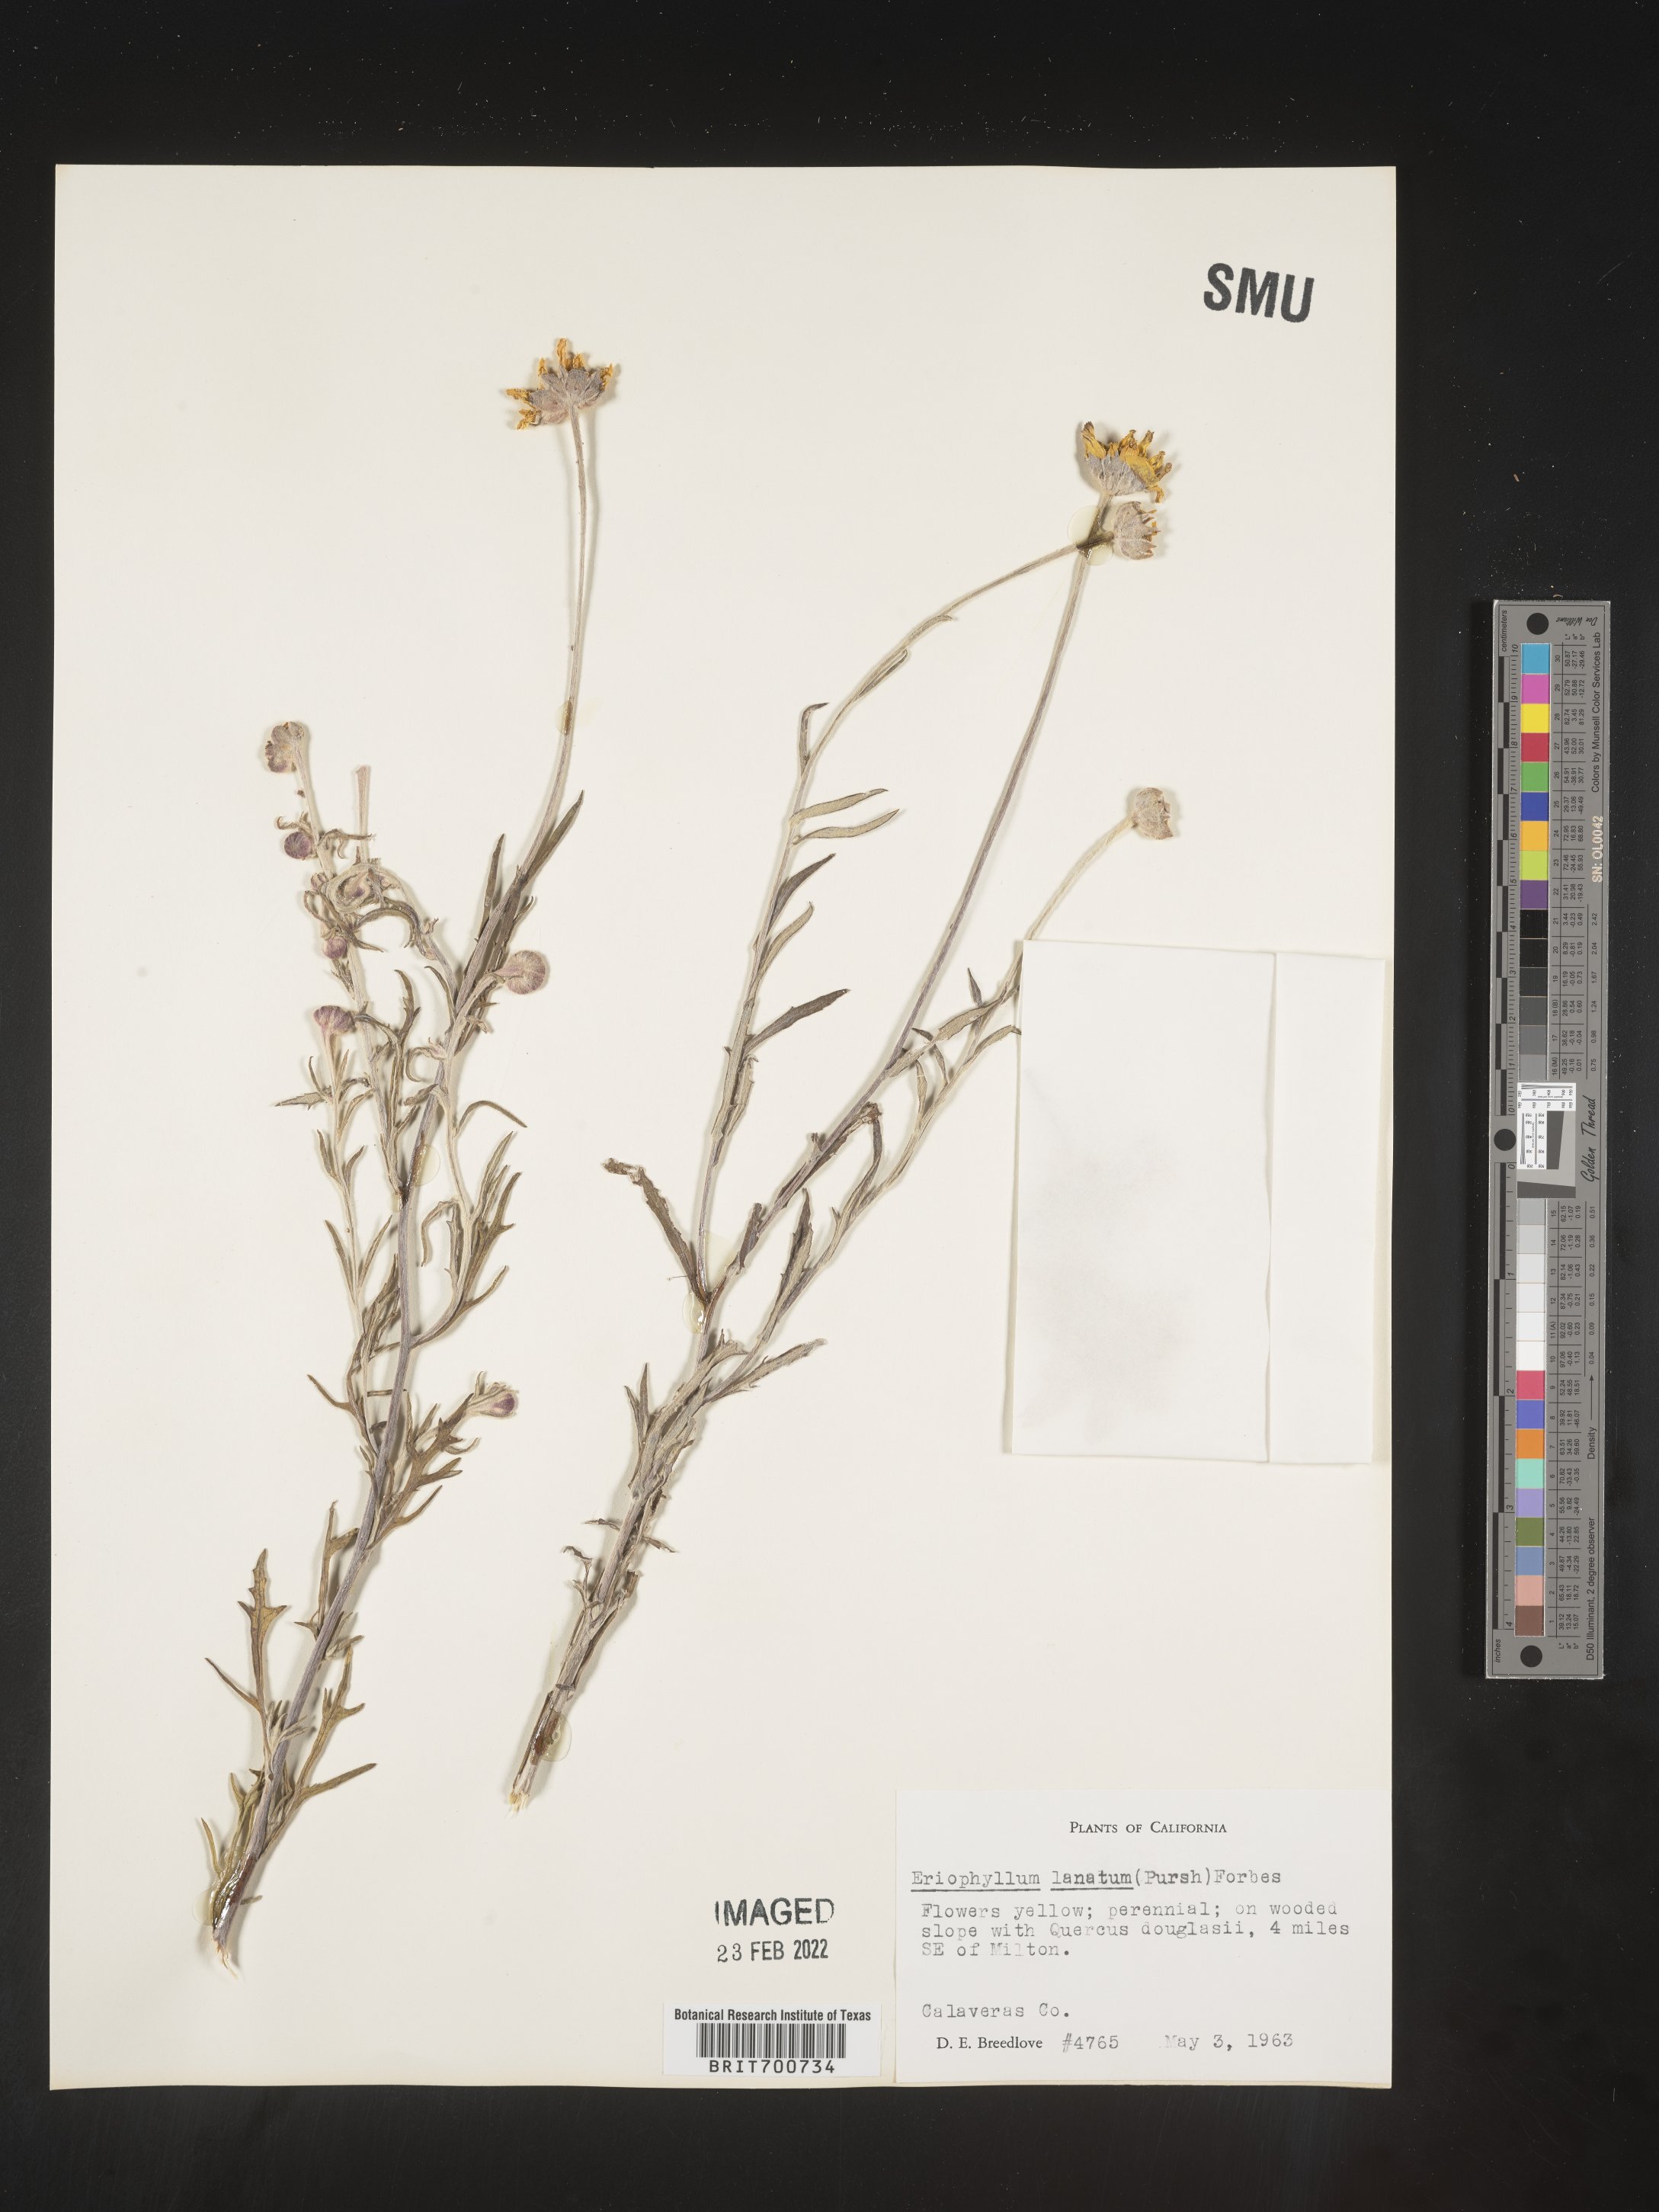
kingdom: Plantae
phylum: Tracheophyta
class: Magnoliopsida
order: Asterales
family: Asteraceae
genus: Eriophyllum
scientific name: Eriophyllum lanatum
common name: Common woolly-sunflower
